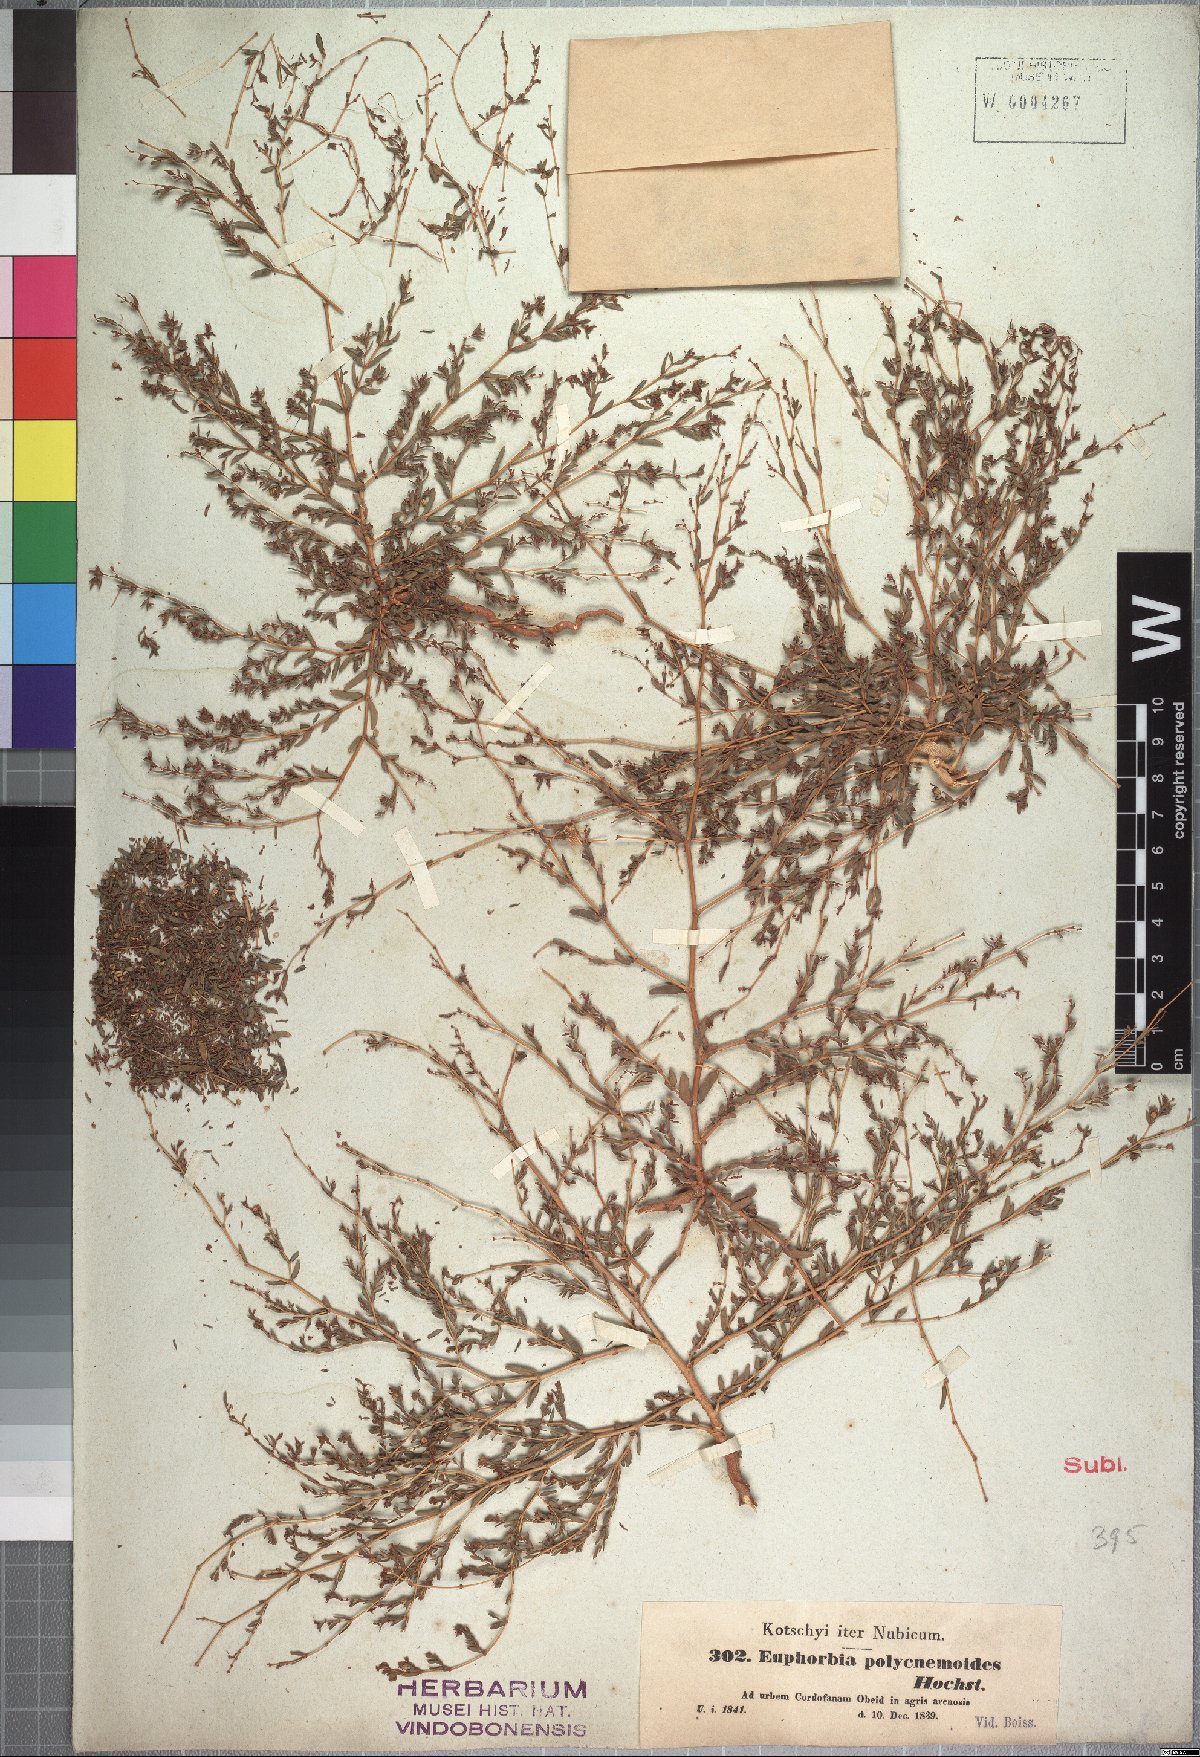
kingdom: Plantae
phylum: Tracheophyta
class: Magnoliopsida
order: Malpighiales
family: Euphorbiaceae
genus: Euphorbia
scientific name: Euphorbia polycnemoides
